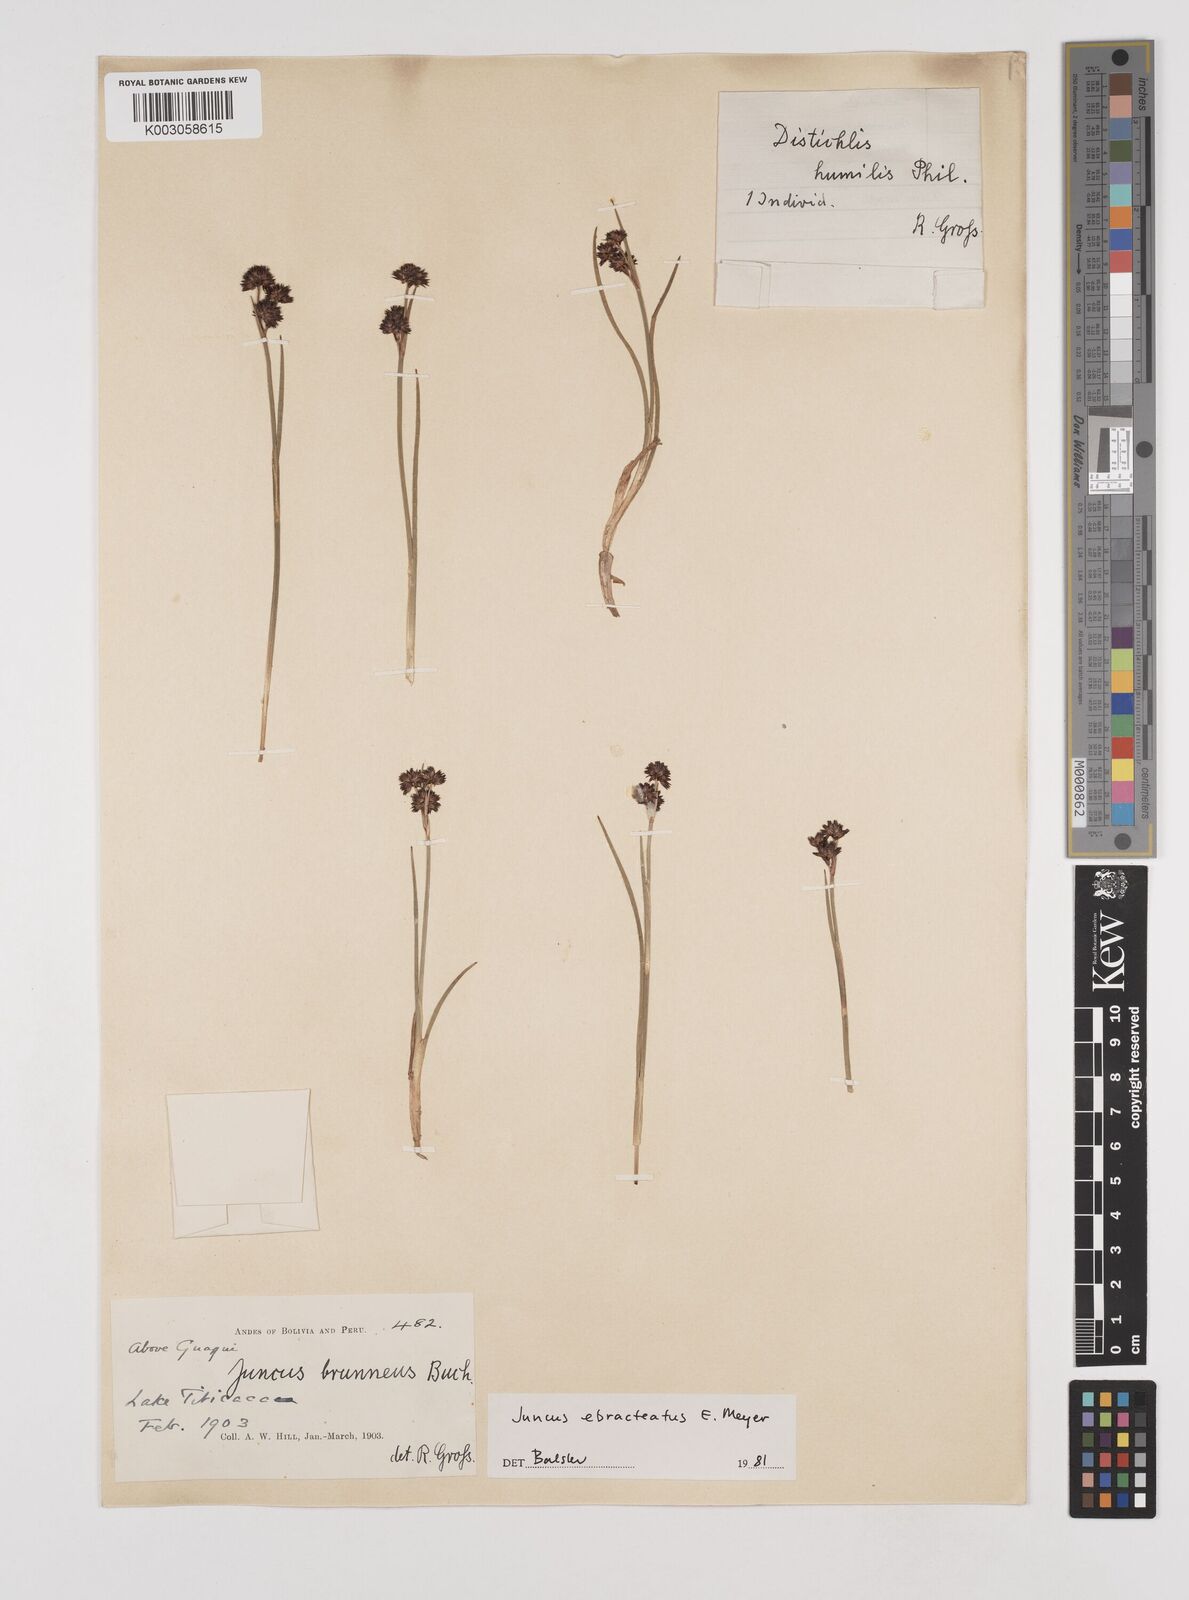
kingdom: Plantae
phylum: Tracheophyta
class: Liliopsida
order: Poales
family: Juncaceae
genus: Juncus
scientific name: Juncus ebracteatus
